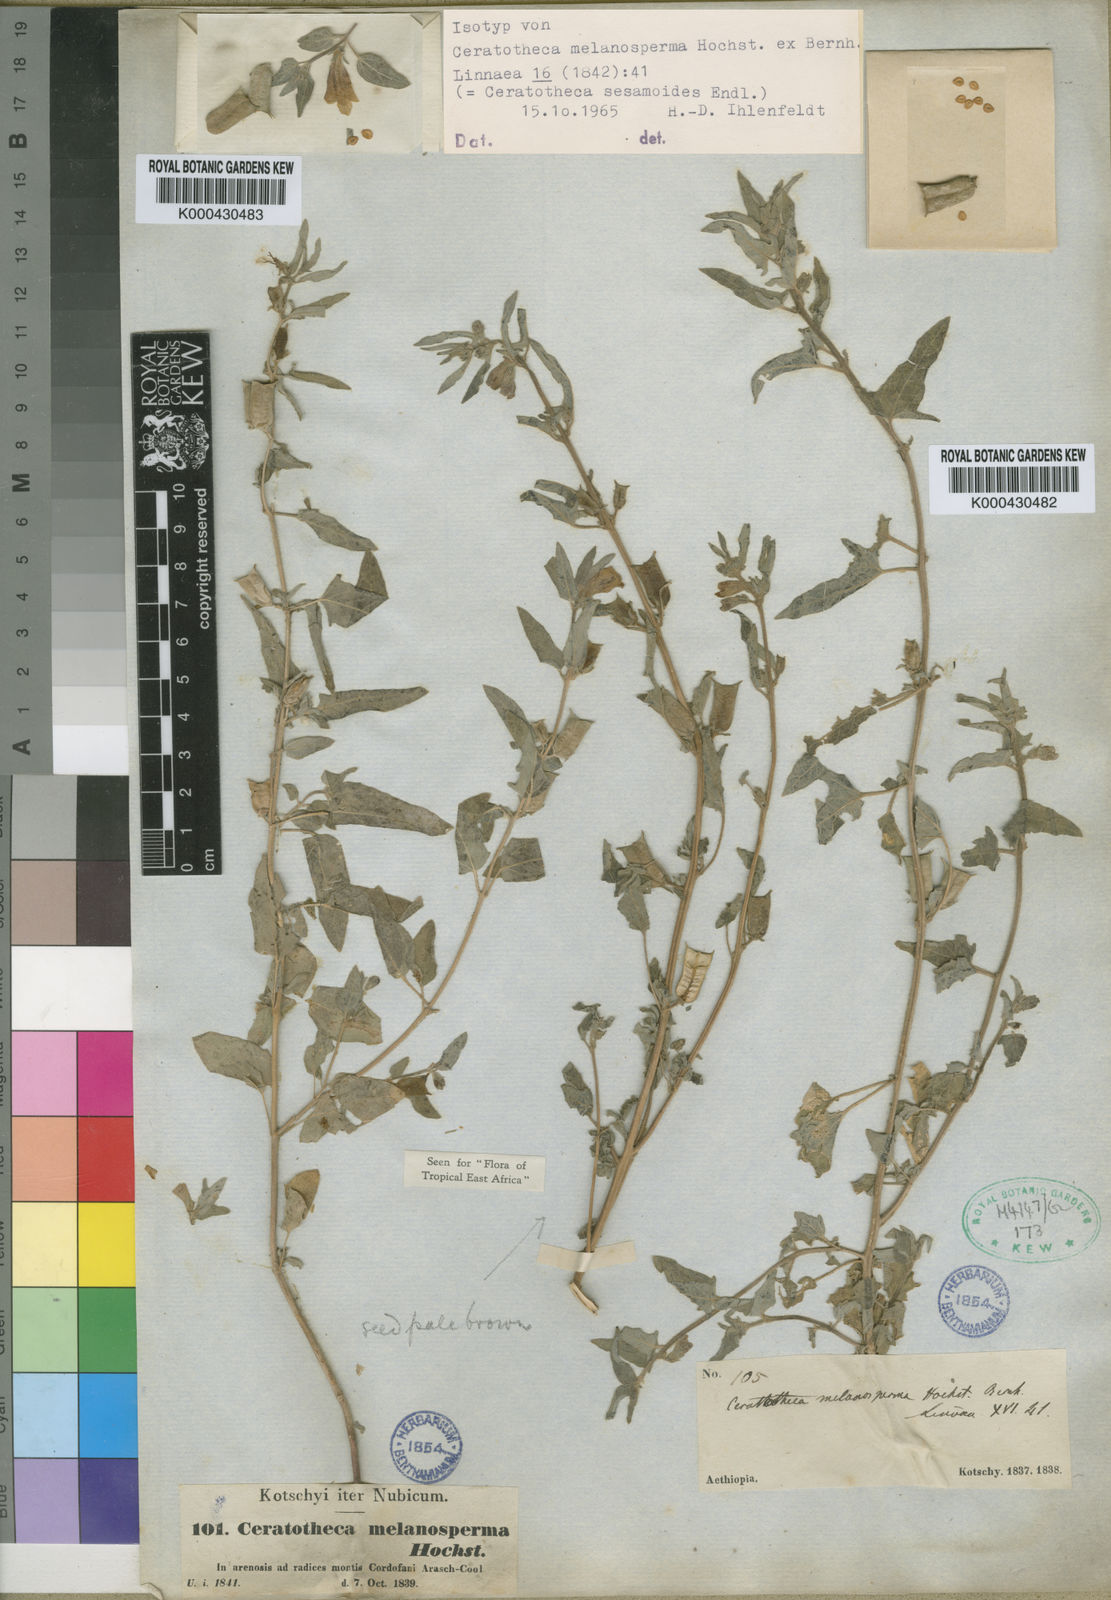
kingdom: Plantae
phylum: Tracheophyta
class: Magnoliopsida
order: Lamiales
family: Pedaliaceae
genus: Sesamum
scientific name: Sesamum sesamoides
